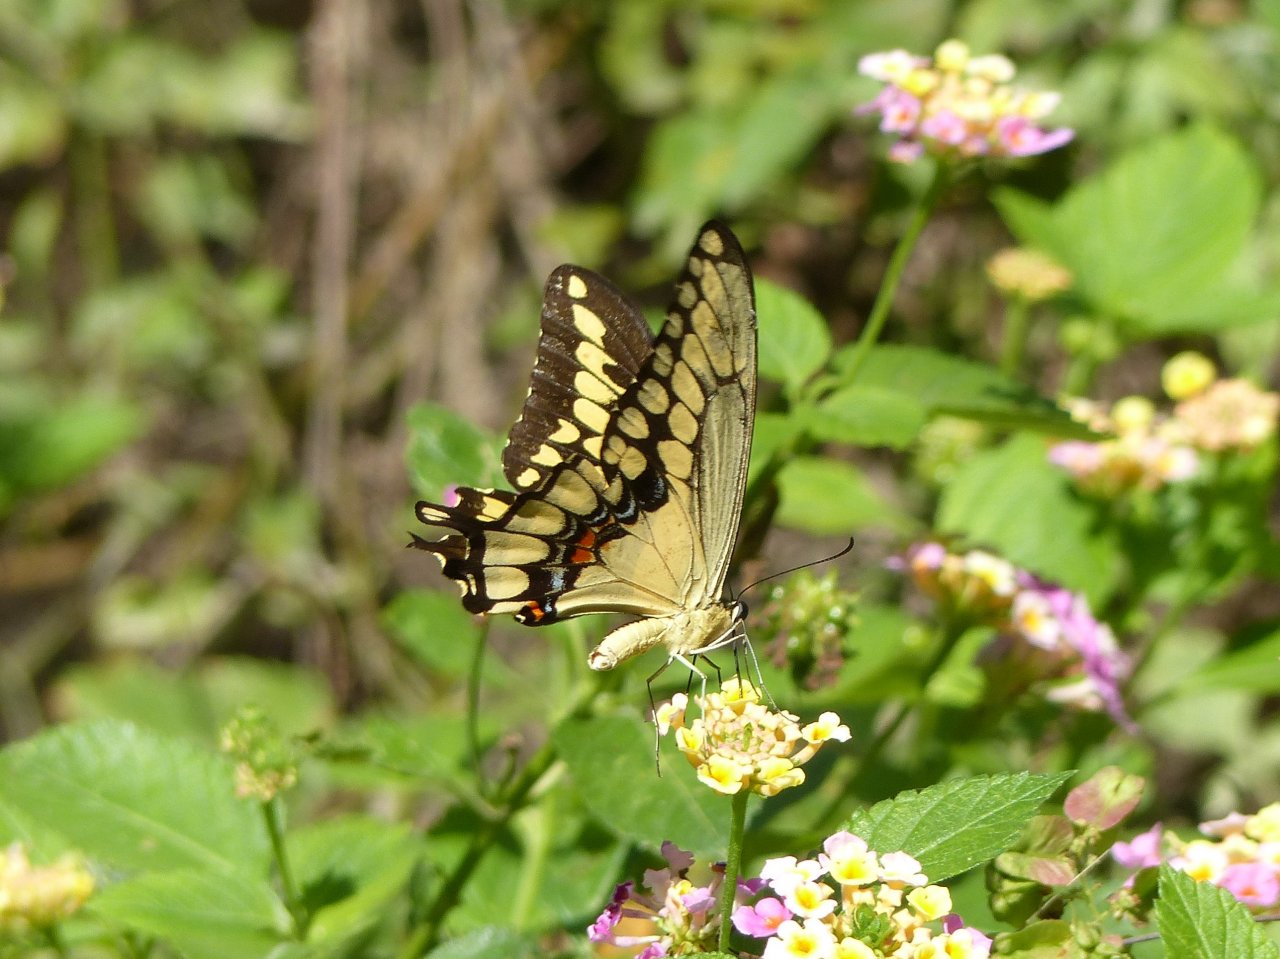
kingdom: Animalia
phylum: Arthropoda
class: Insecta
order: Lepidoptera
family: Papilionidae
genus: Papilio
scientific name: Papilio rumiko
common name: Western Giant Swallowtail
